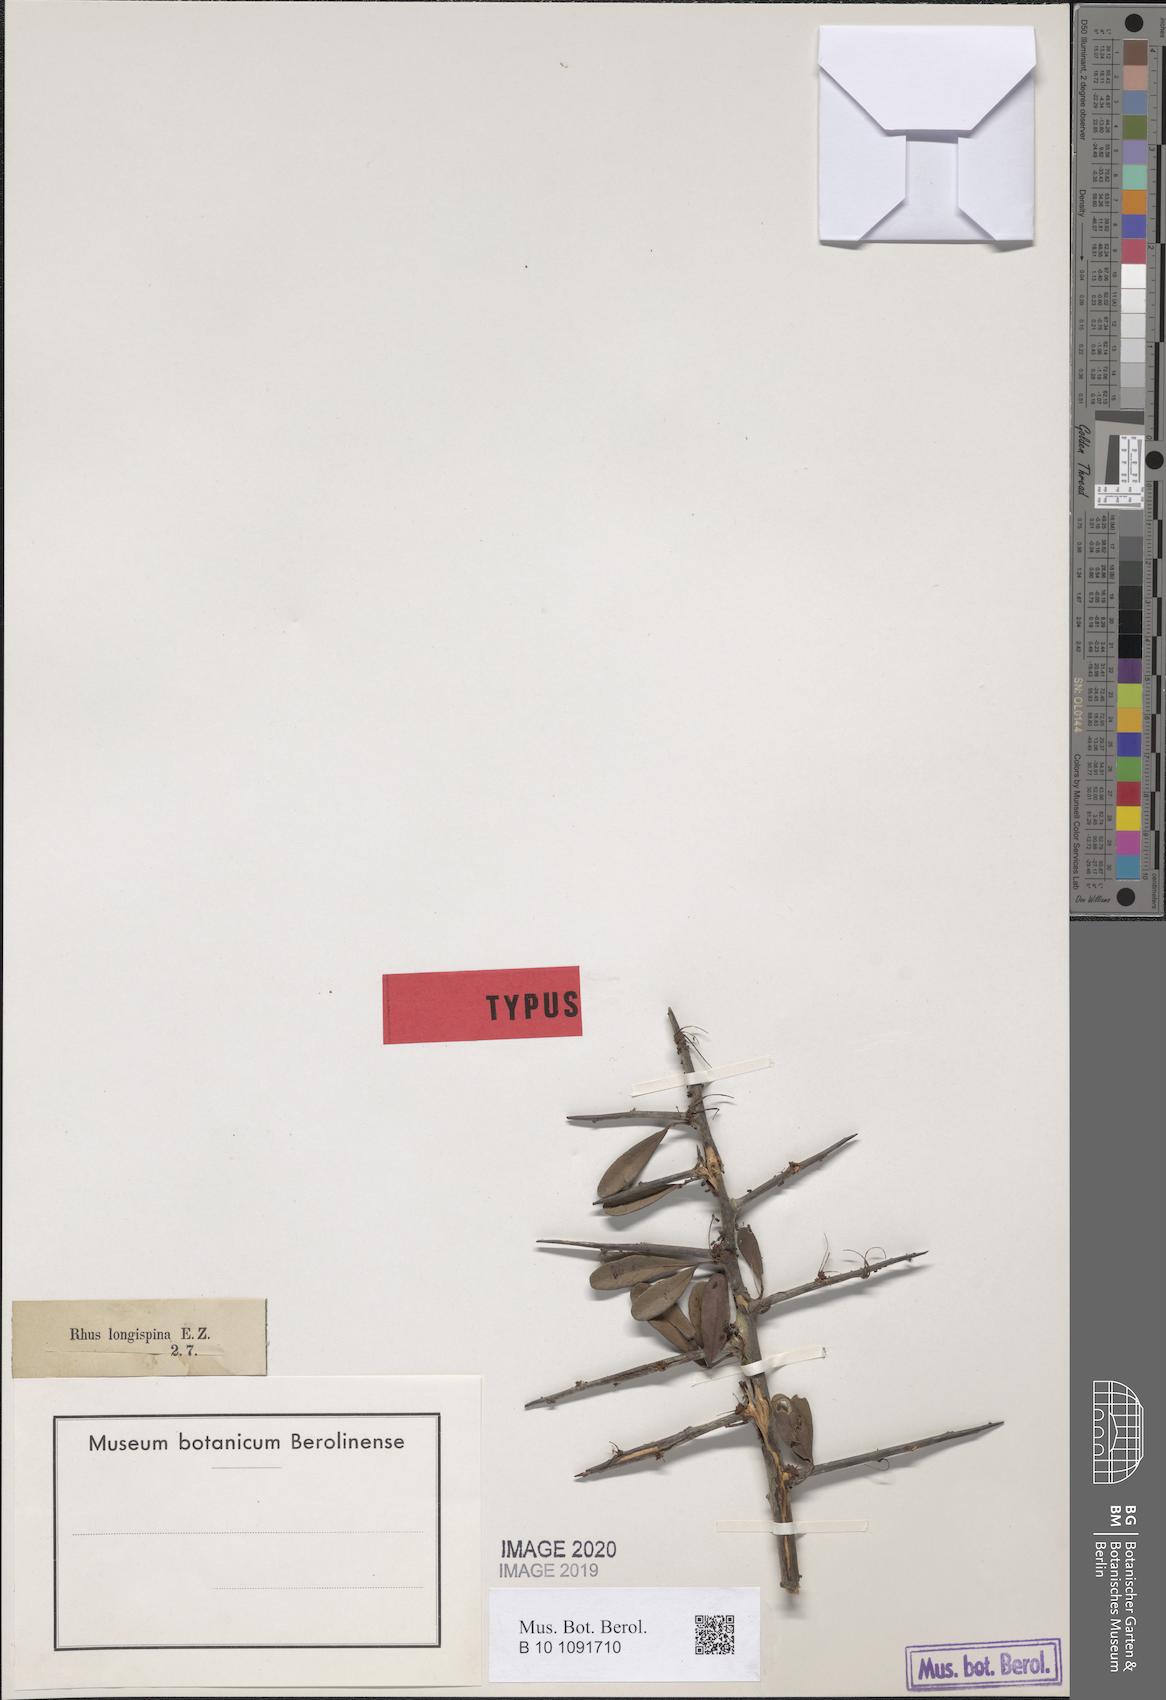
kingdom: Plantae
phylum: Tracheophyta
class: Magnoliopsida
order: Sapindales
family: Anacardiaceae
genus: Searsia
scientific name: Searsia longispina
